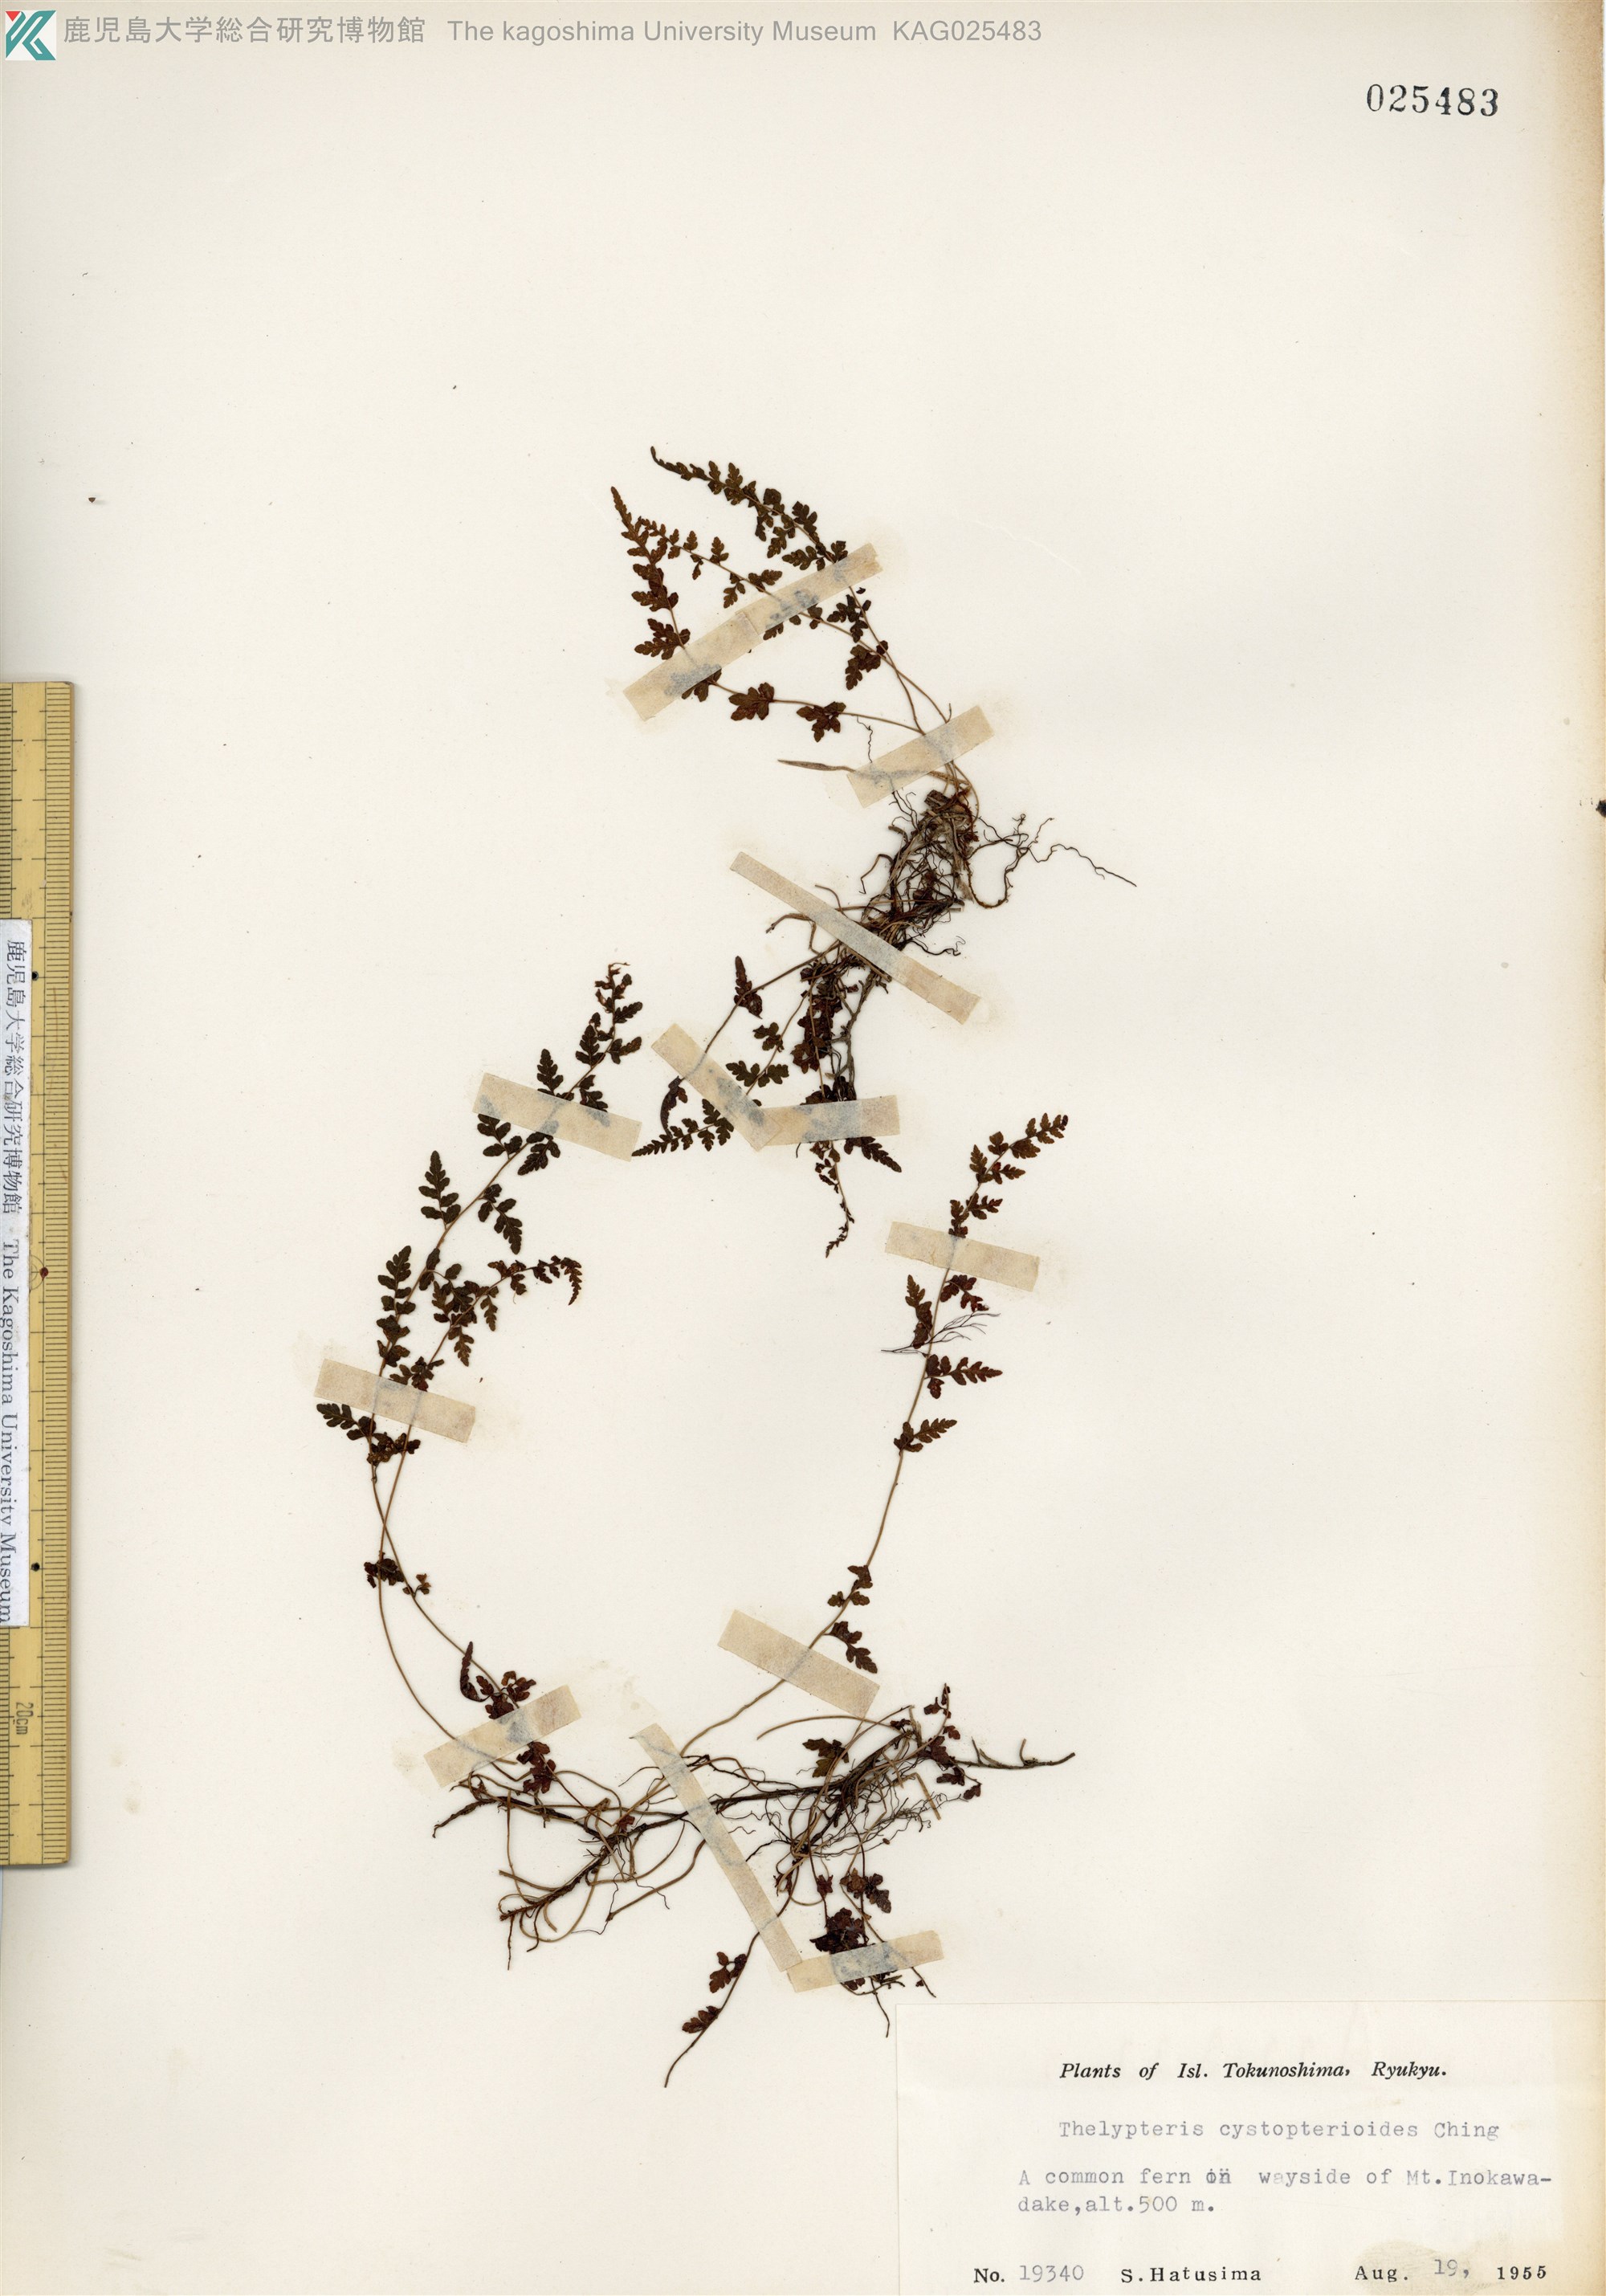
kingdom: Plantae
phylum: Tracheophyta
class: Polypodiopsida
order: Polypodiales
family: Thelypteridaceae
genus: Amauropelta
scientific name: Amauropelta cystopteroides
